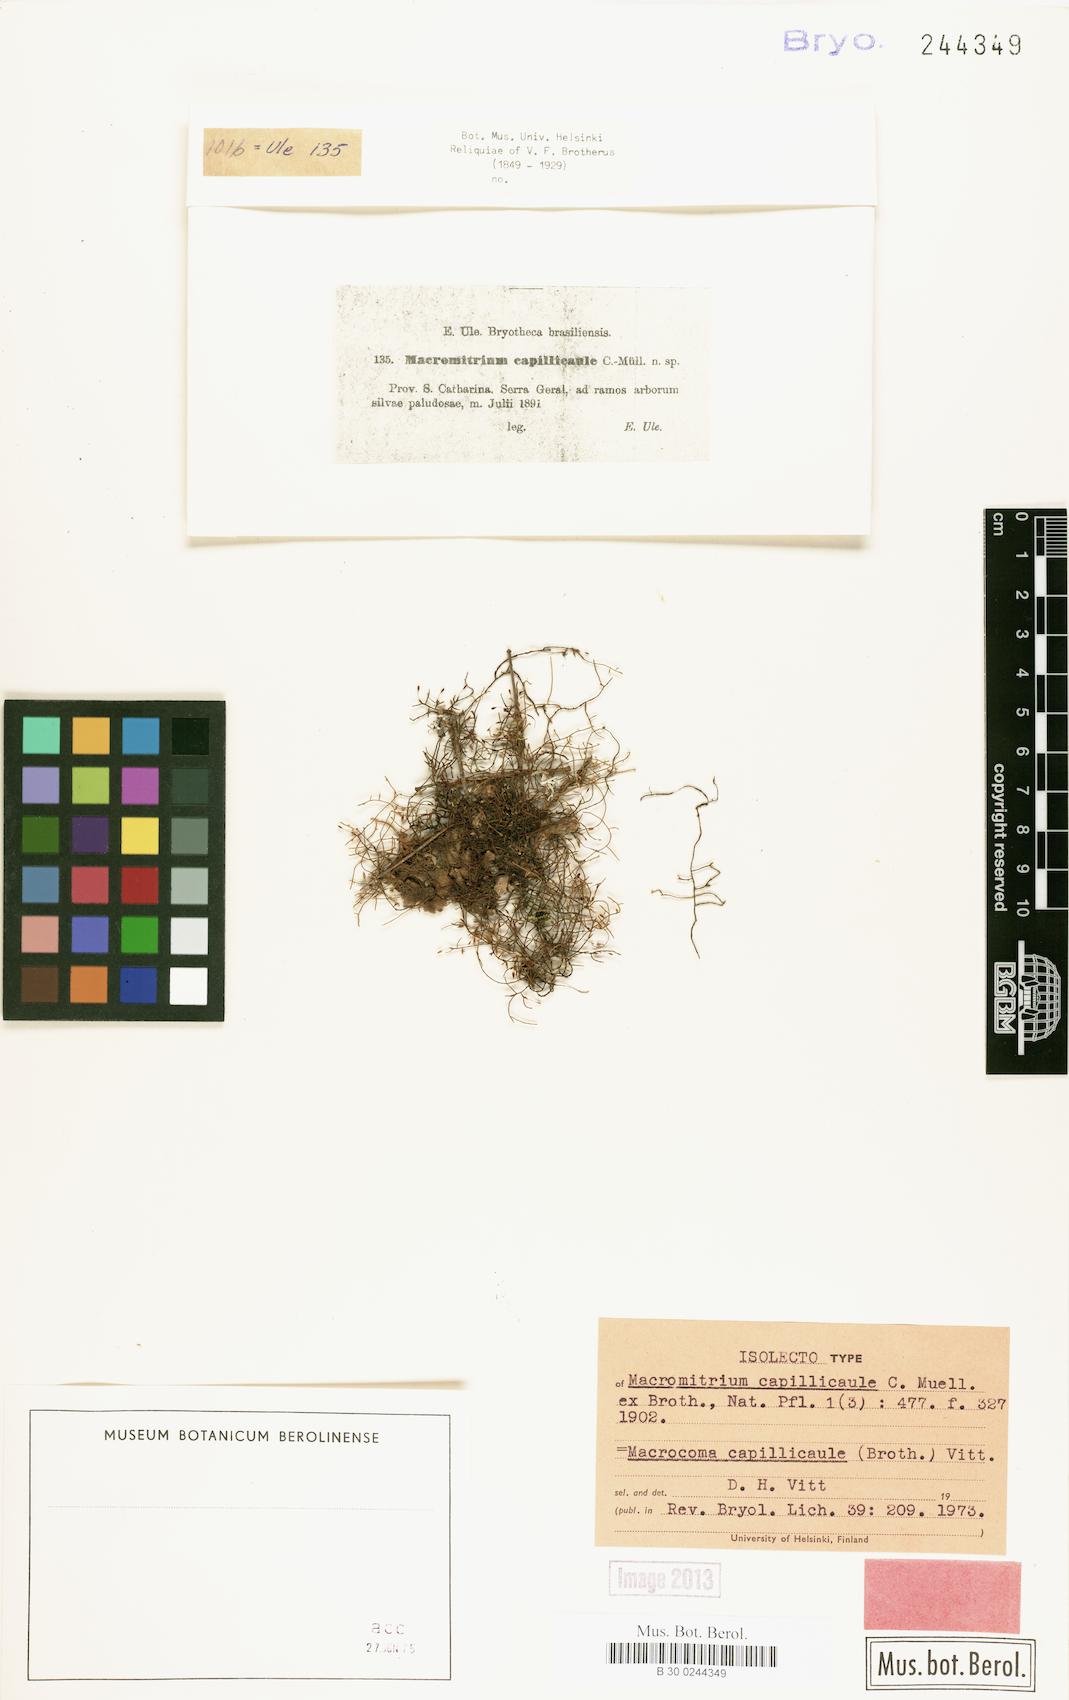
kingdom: Plantae
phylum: Bryophyta
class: Bryopsida
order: Orthotrichales
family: Orthotrichaceae
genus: Macrocoma
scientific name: Macrocoma brasiliensis
